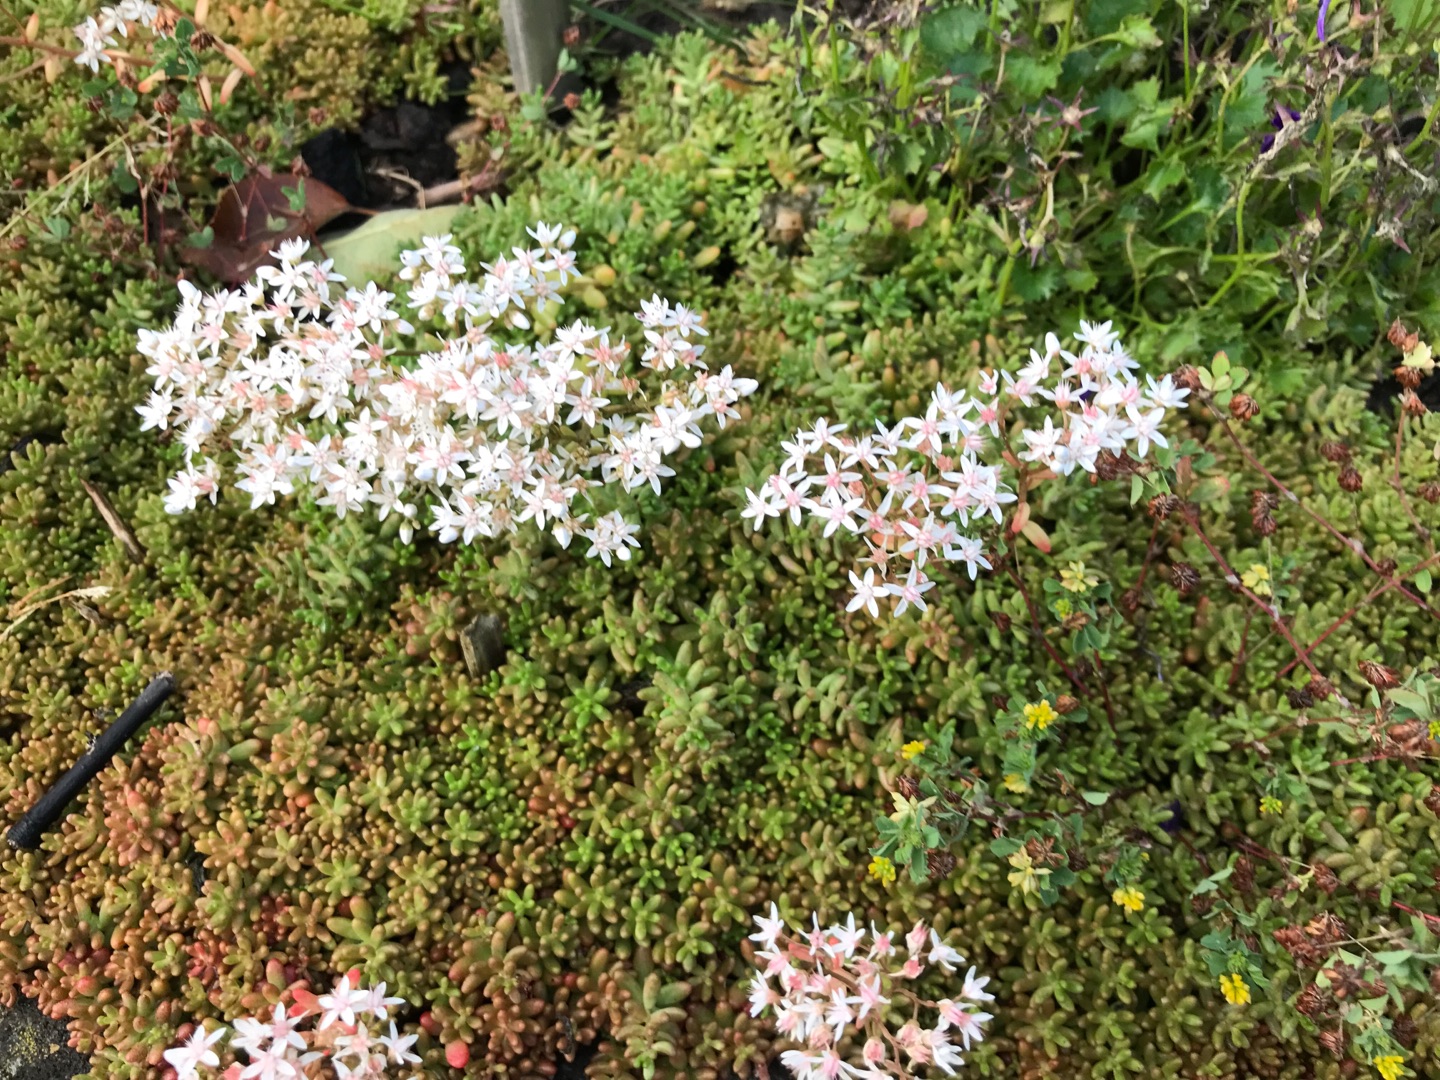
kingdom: Plantae
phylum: Tracheophyta
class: Magnoliopsida
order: Saxifragales
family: Crassulaceae
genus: Sedum
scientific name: Sedum album
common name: Hvid stenurt
